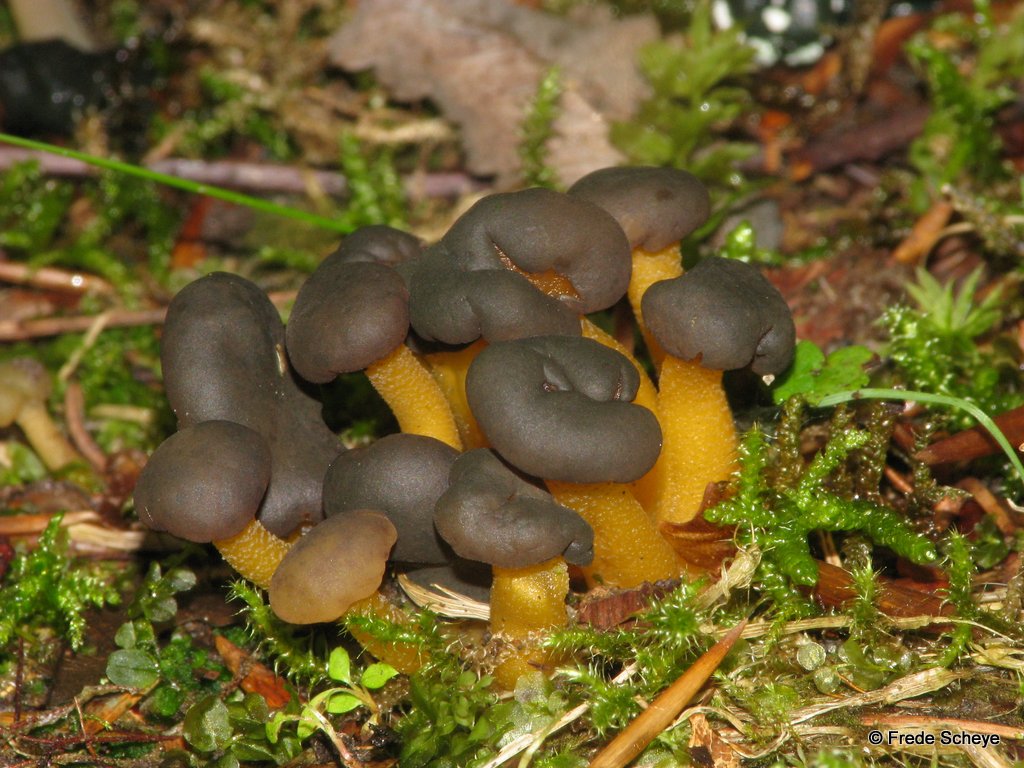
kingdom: Fungi
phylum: Ascomycota
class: Leotiomycetes
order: Leotiales
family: Leotiaceae
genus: Leotia
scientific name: Leotia lubrica
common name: ravsvamp
